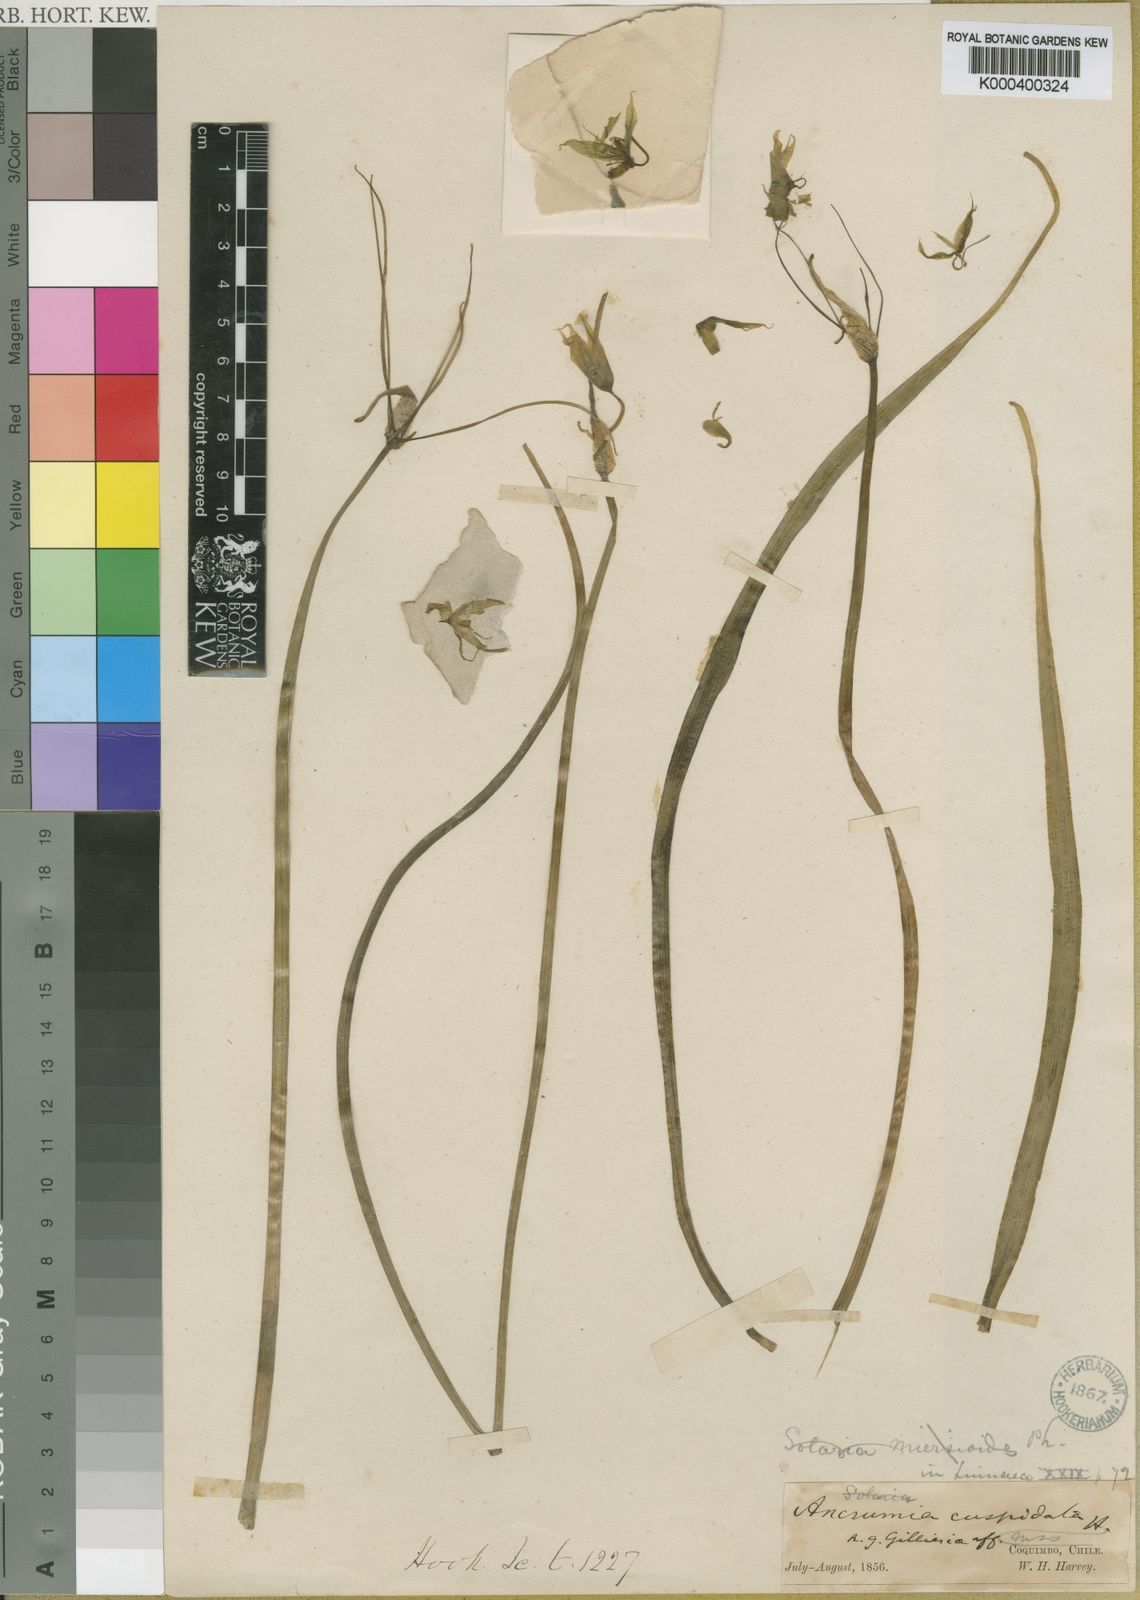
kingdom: Plantae
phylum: Tracheophyta
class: Liliopsida
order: Asparagales
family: Amaryllidaceae
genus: Gilliesia
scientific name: Gilliesia cuspidata
